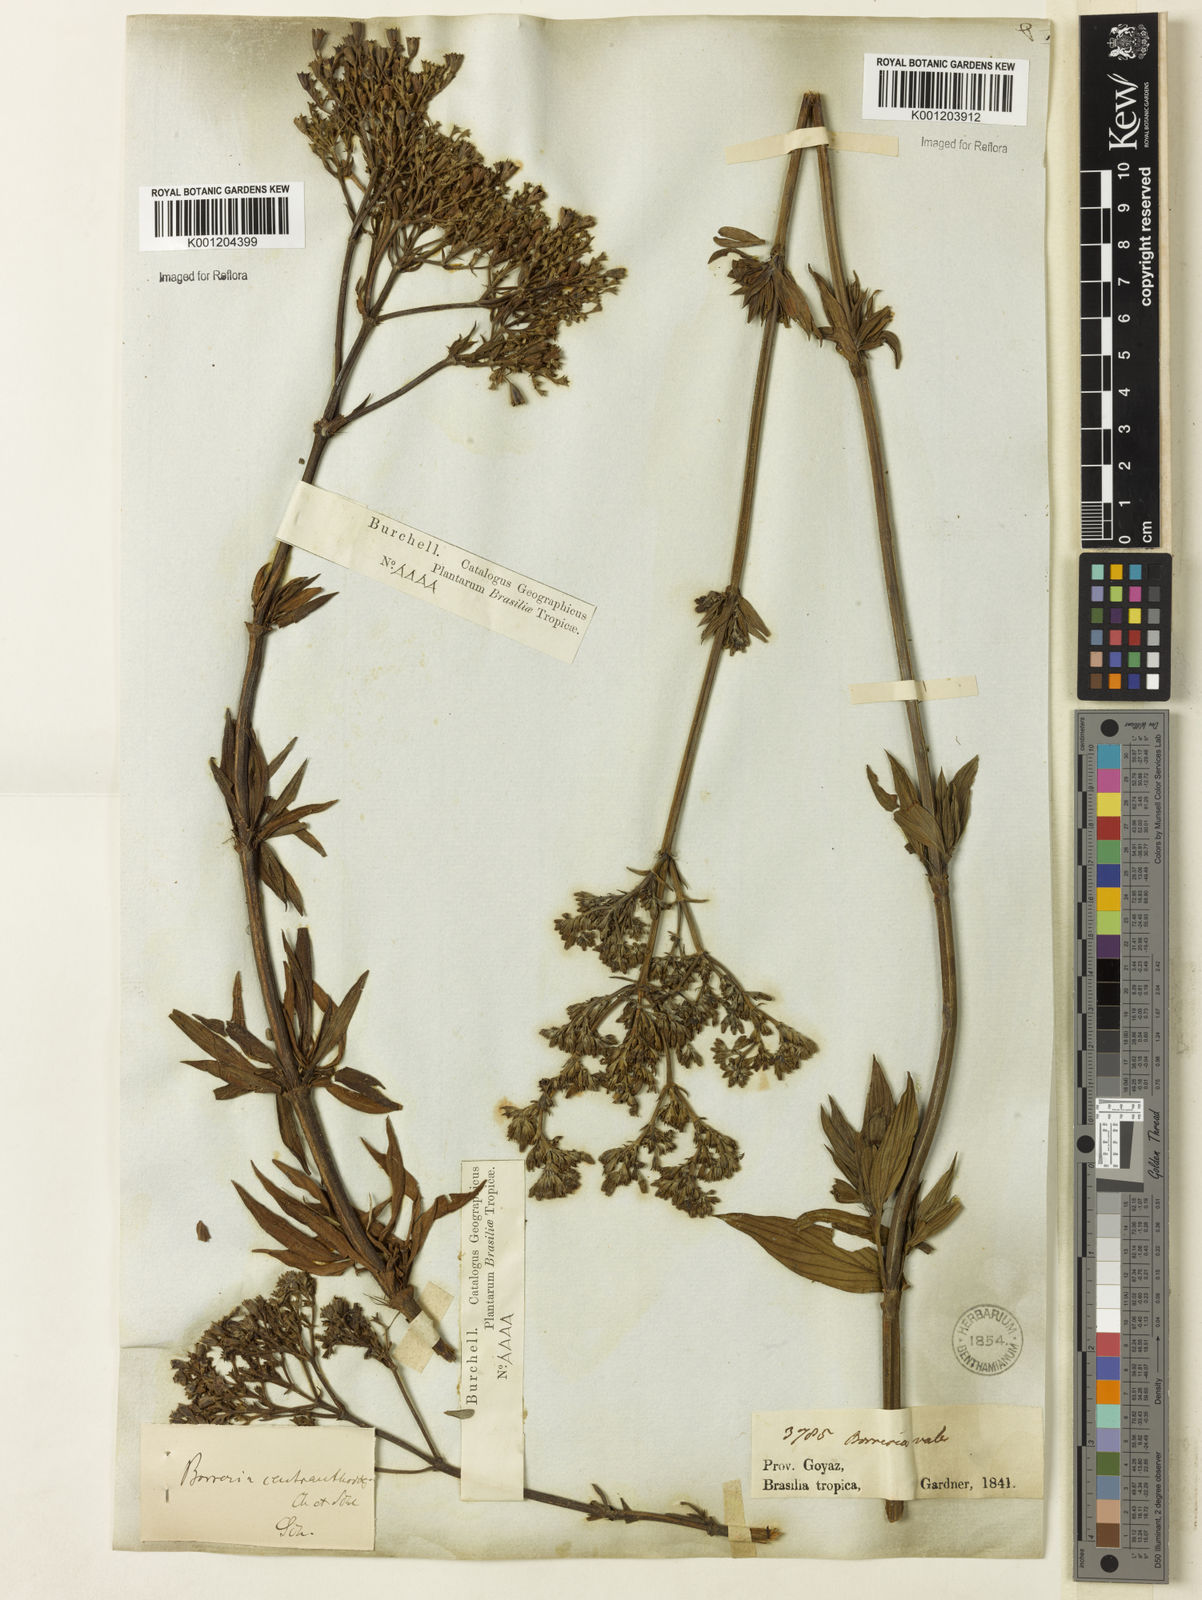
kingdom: Plantae
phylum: Tracheophyta
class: Magnoliopsida
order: Gentianales
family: Rubiaceae
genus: Galianthe
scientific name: Galianthe centranthoides
